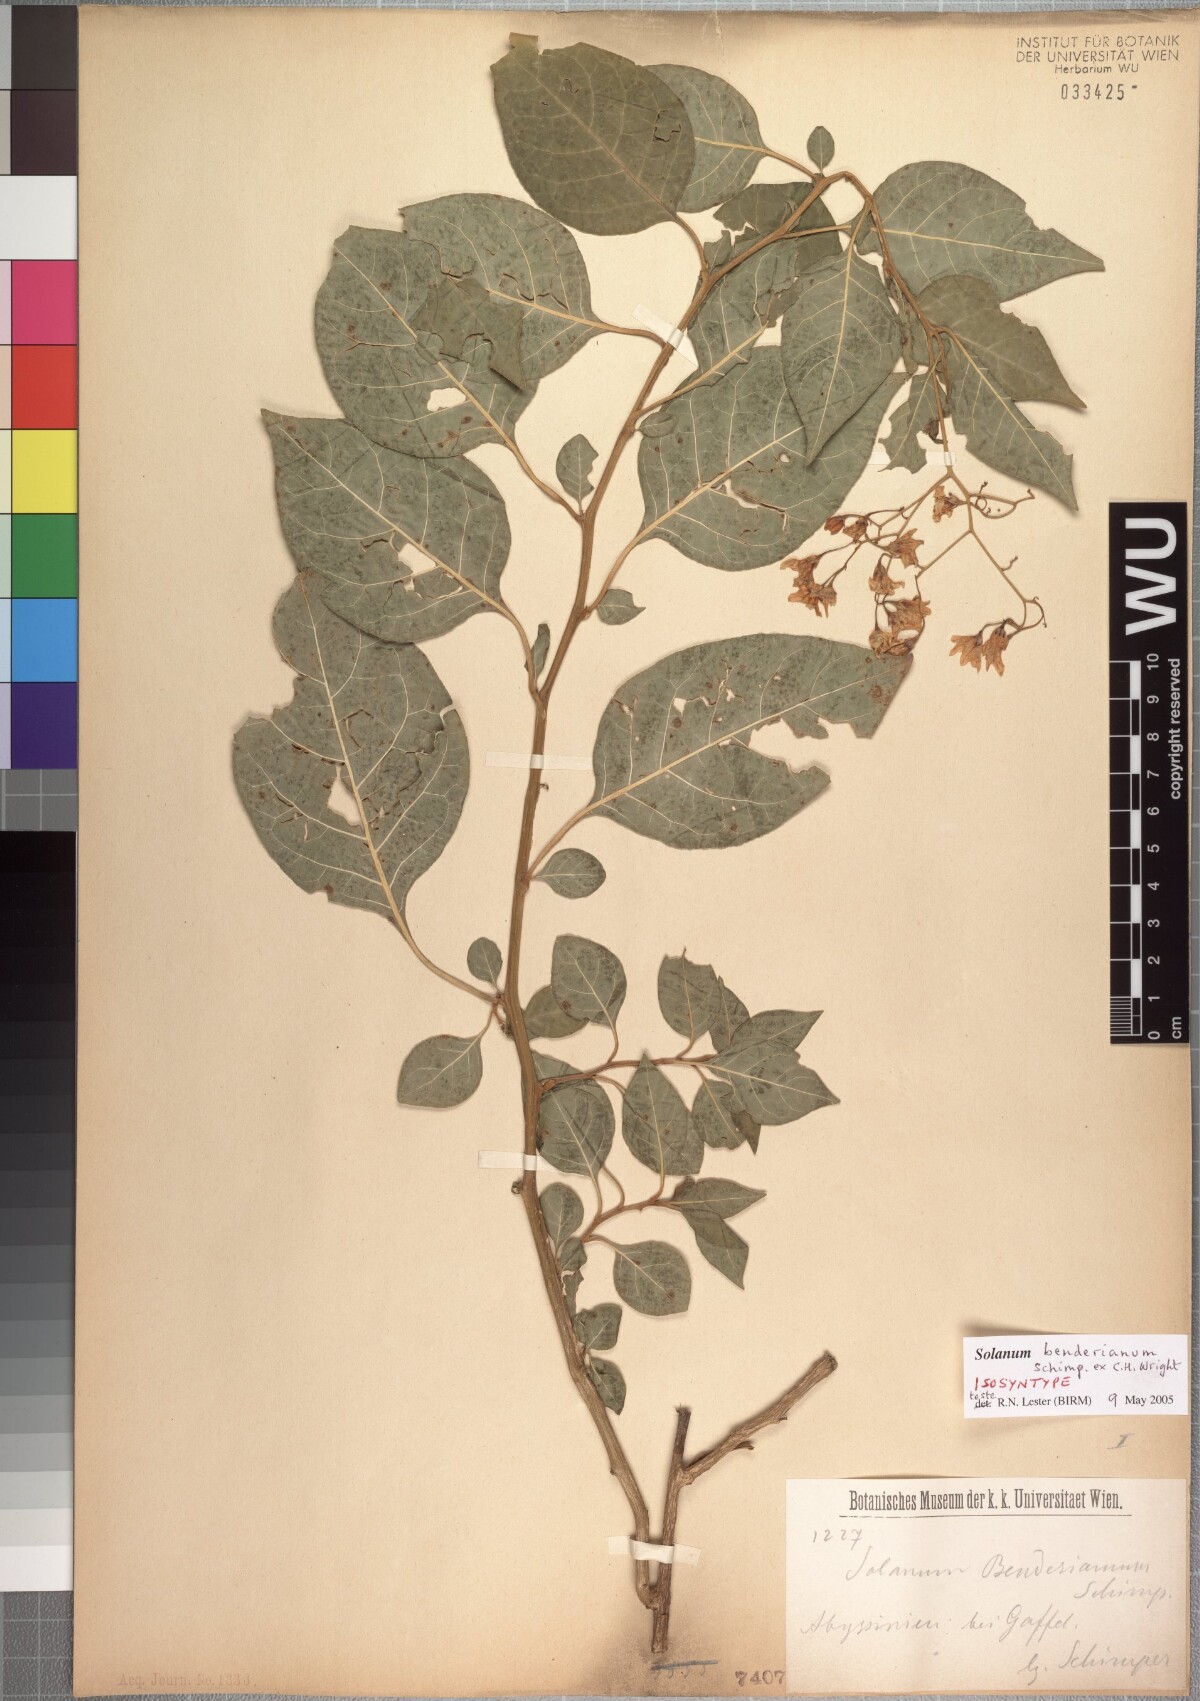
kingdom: Plantae
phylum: Tracheophyta
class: Magnoliopsida
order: Solanales
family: Solanaceae
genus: Solanum
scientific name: Solanum runsoriense
